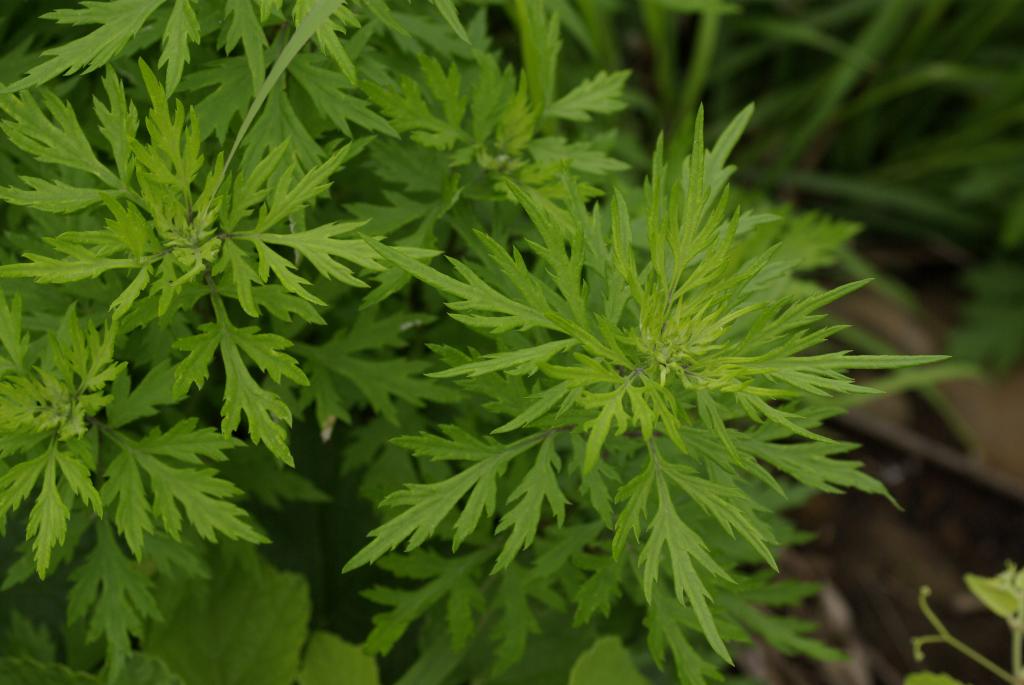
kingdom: Plantae
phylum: Tracheophyta
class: Magnoliopsida
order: Asterales
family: Asteraceae
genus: Artemisia
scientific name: Artemisia indica
